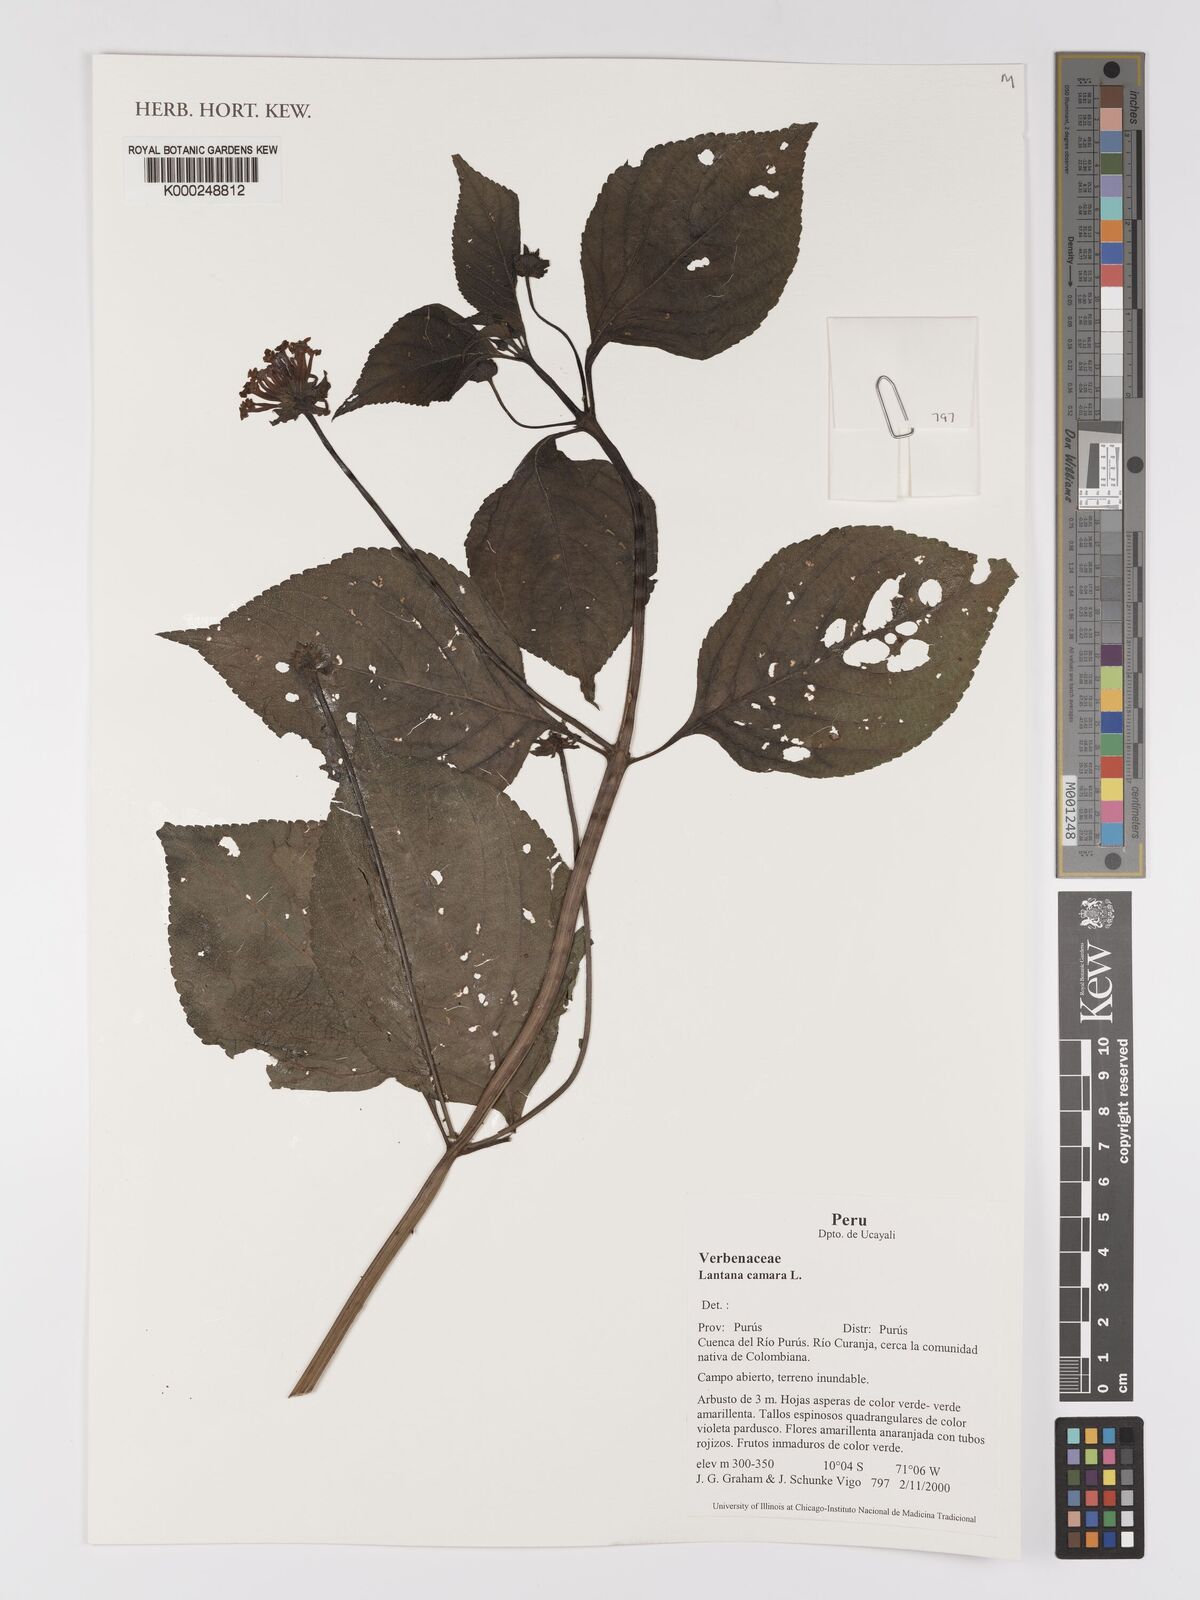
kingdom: Plantae
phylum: Tracheophyta
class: Magnoliopsida
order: Lamiales
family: Verbenaceae
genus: Lantana
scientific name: Lantana camara
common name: Lantana
